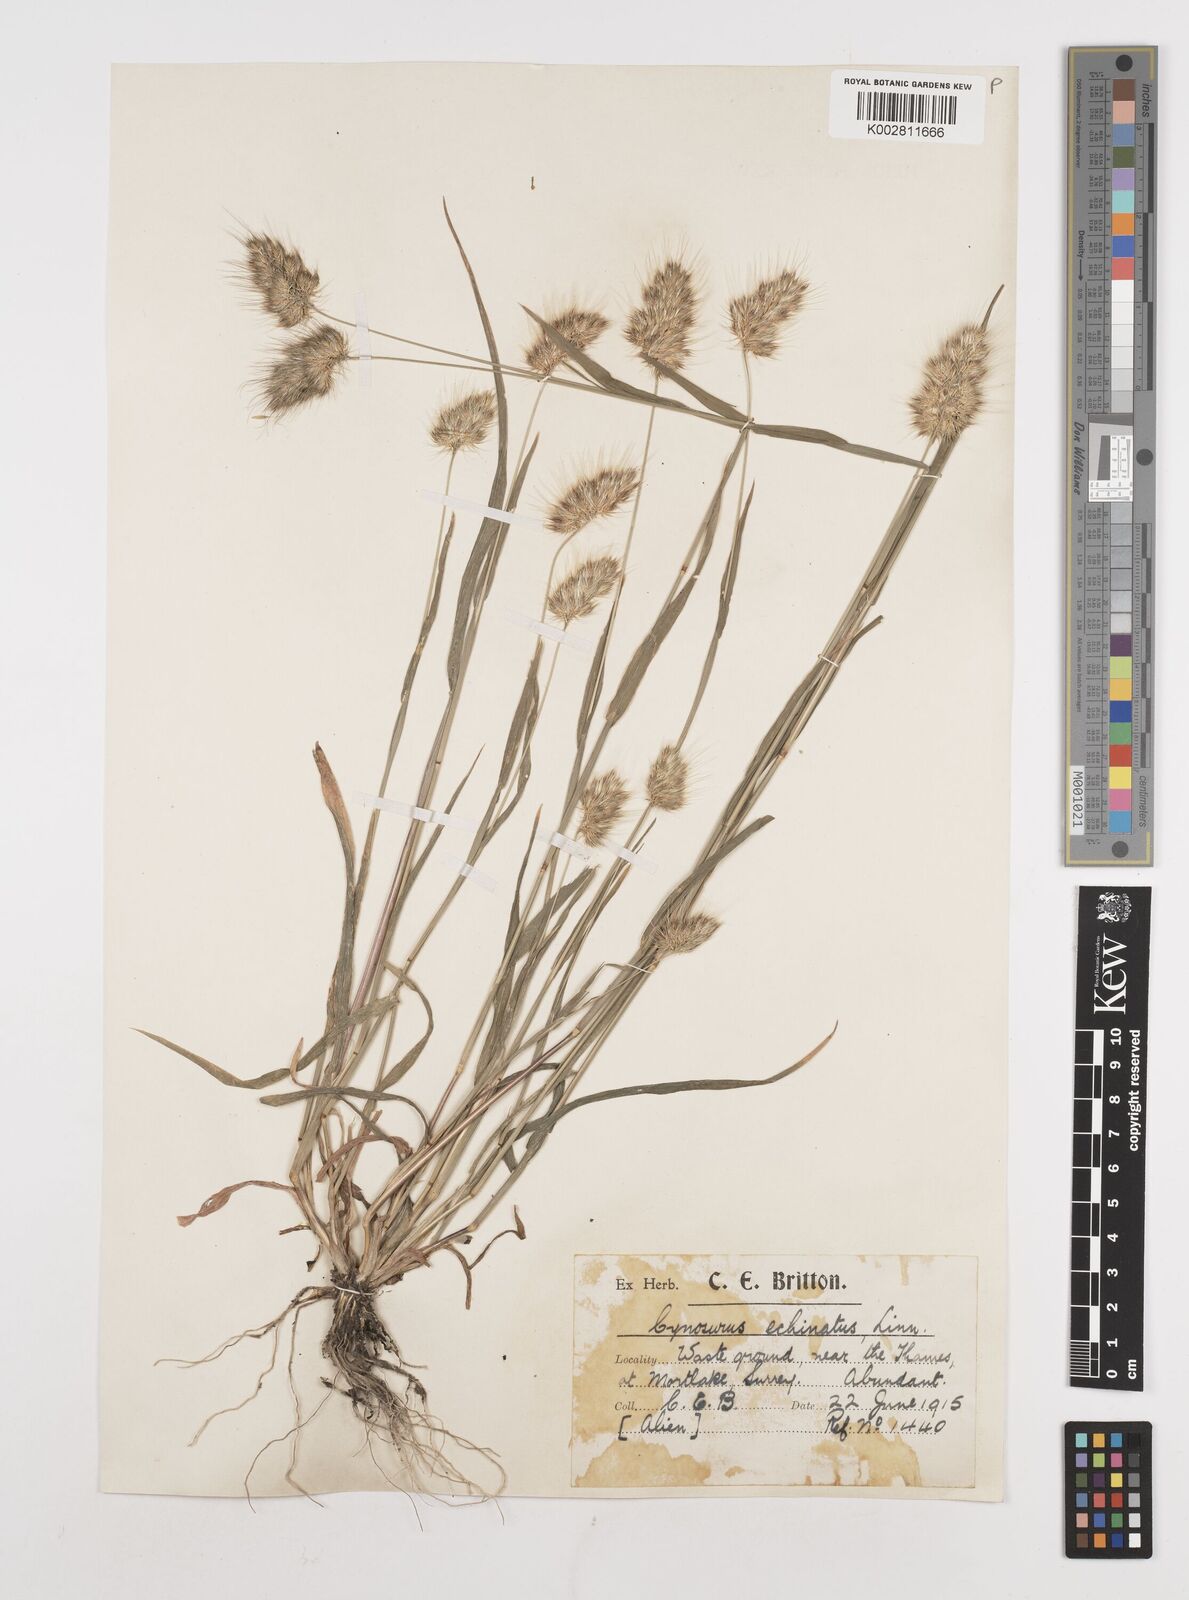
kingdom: Plantae
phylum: Tracheophyta
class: Liliopsida
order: Poales
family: Poaceae
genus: Cynosurus
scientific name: Cynosurus echinatus
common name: Rough dog's-tail
